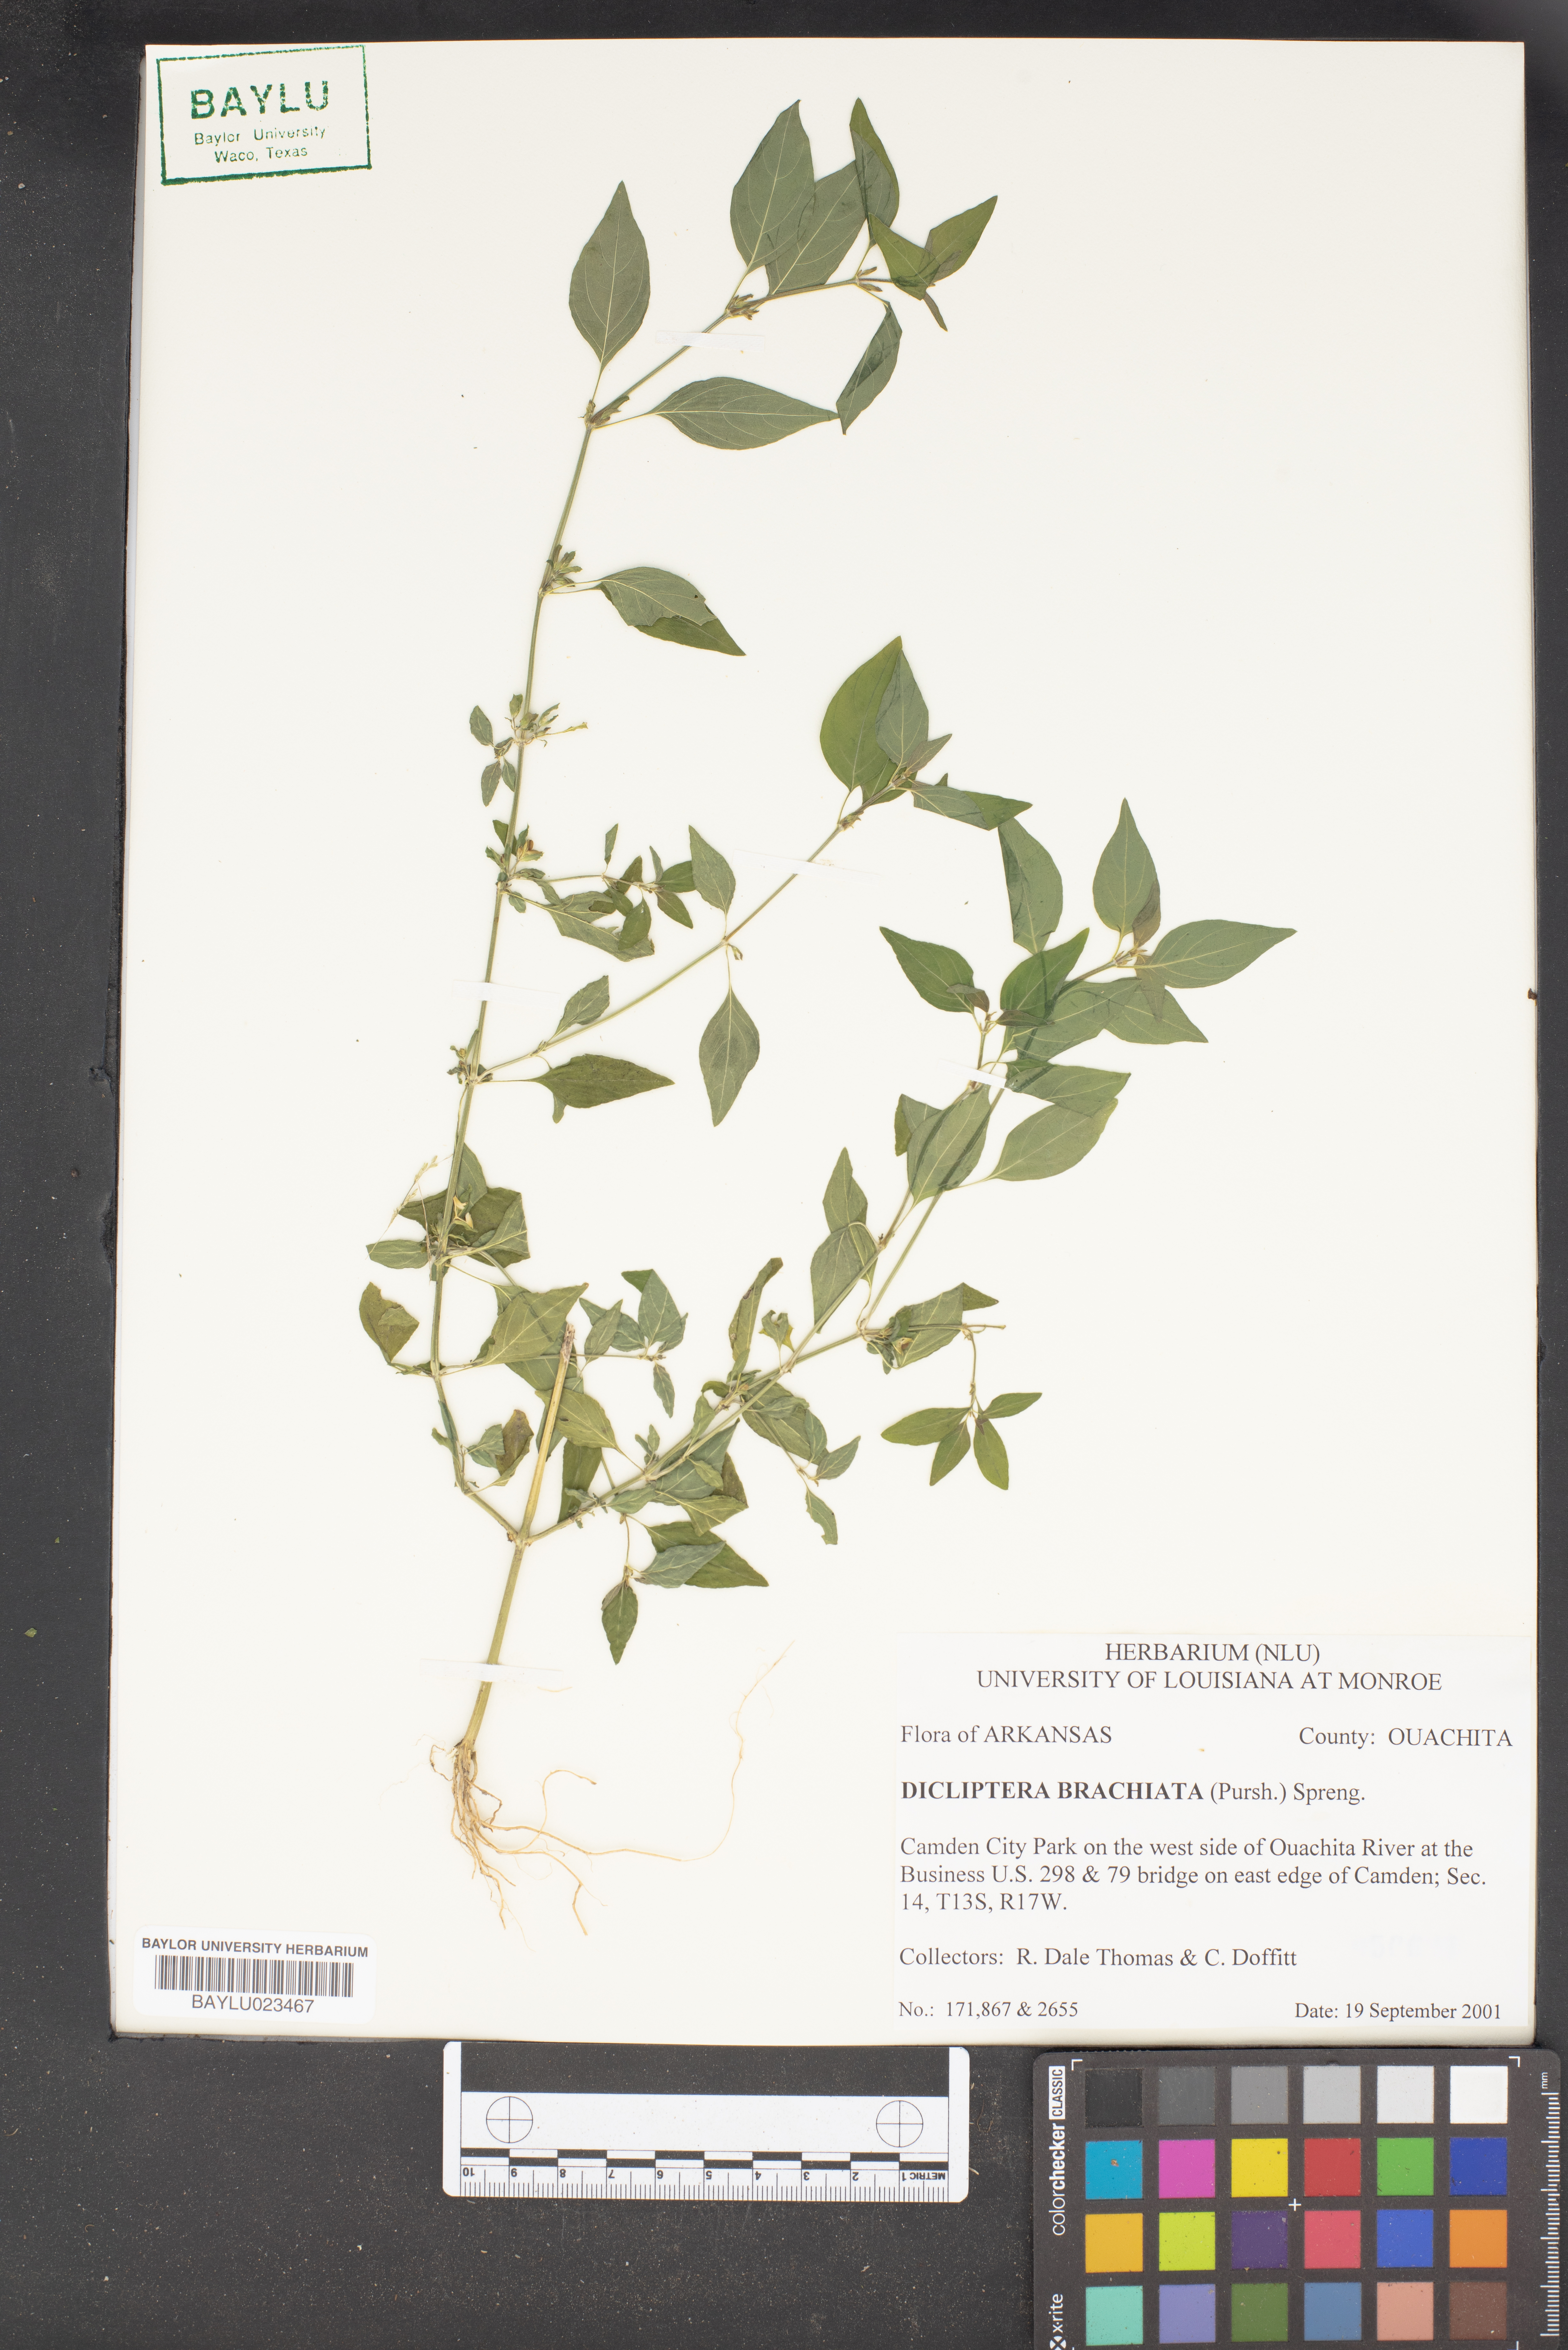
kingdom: Plantae
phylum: Tracheophyta
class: Magnoliopsida
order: Lamiales
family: Acanthaceae
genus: Dicliptera
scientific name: Dicliptera brachiata
